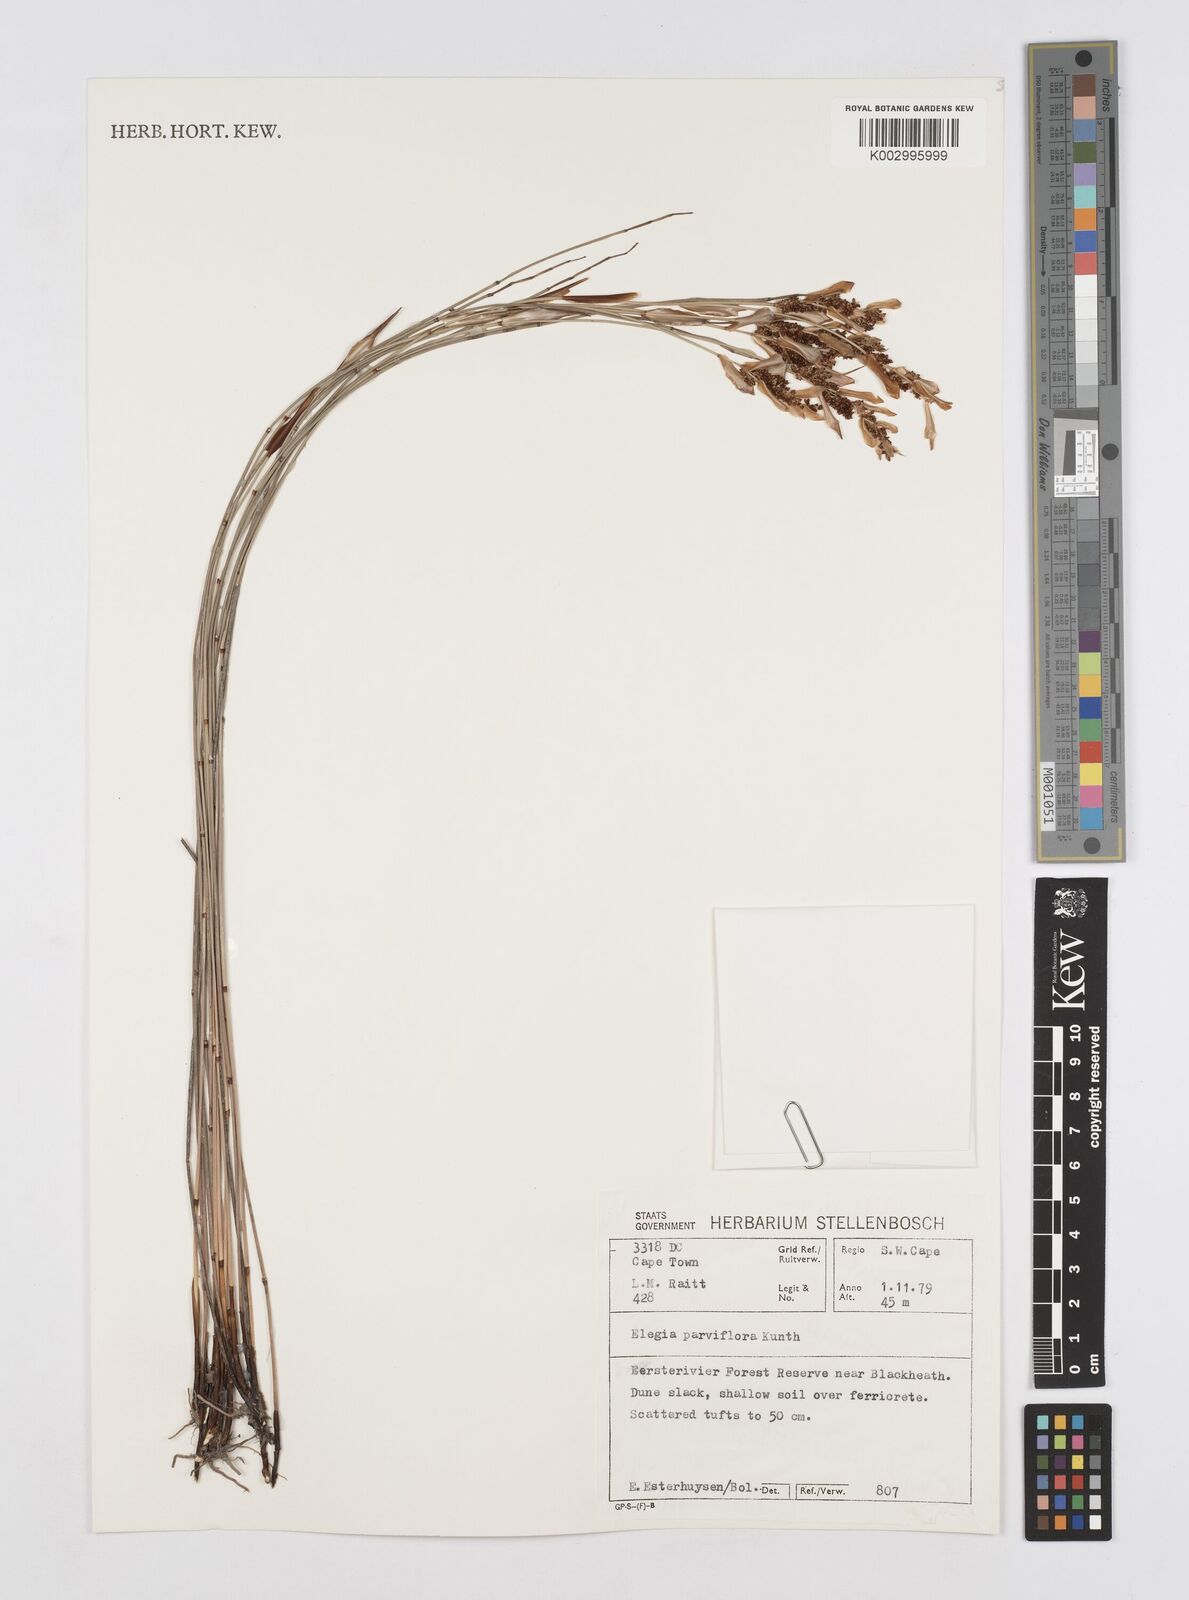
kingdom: Plantae
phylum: Tracheophyta
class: Liliopsida
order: Poales
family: Restionaceae
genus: Cannomois
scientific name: Cannomois parviflora
